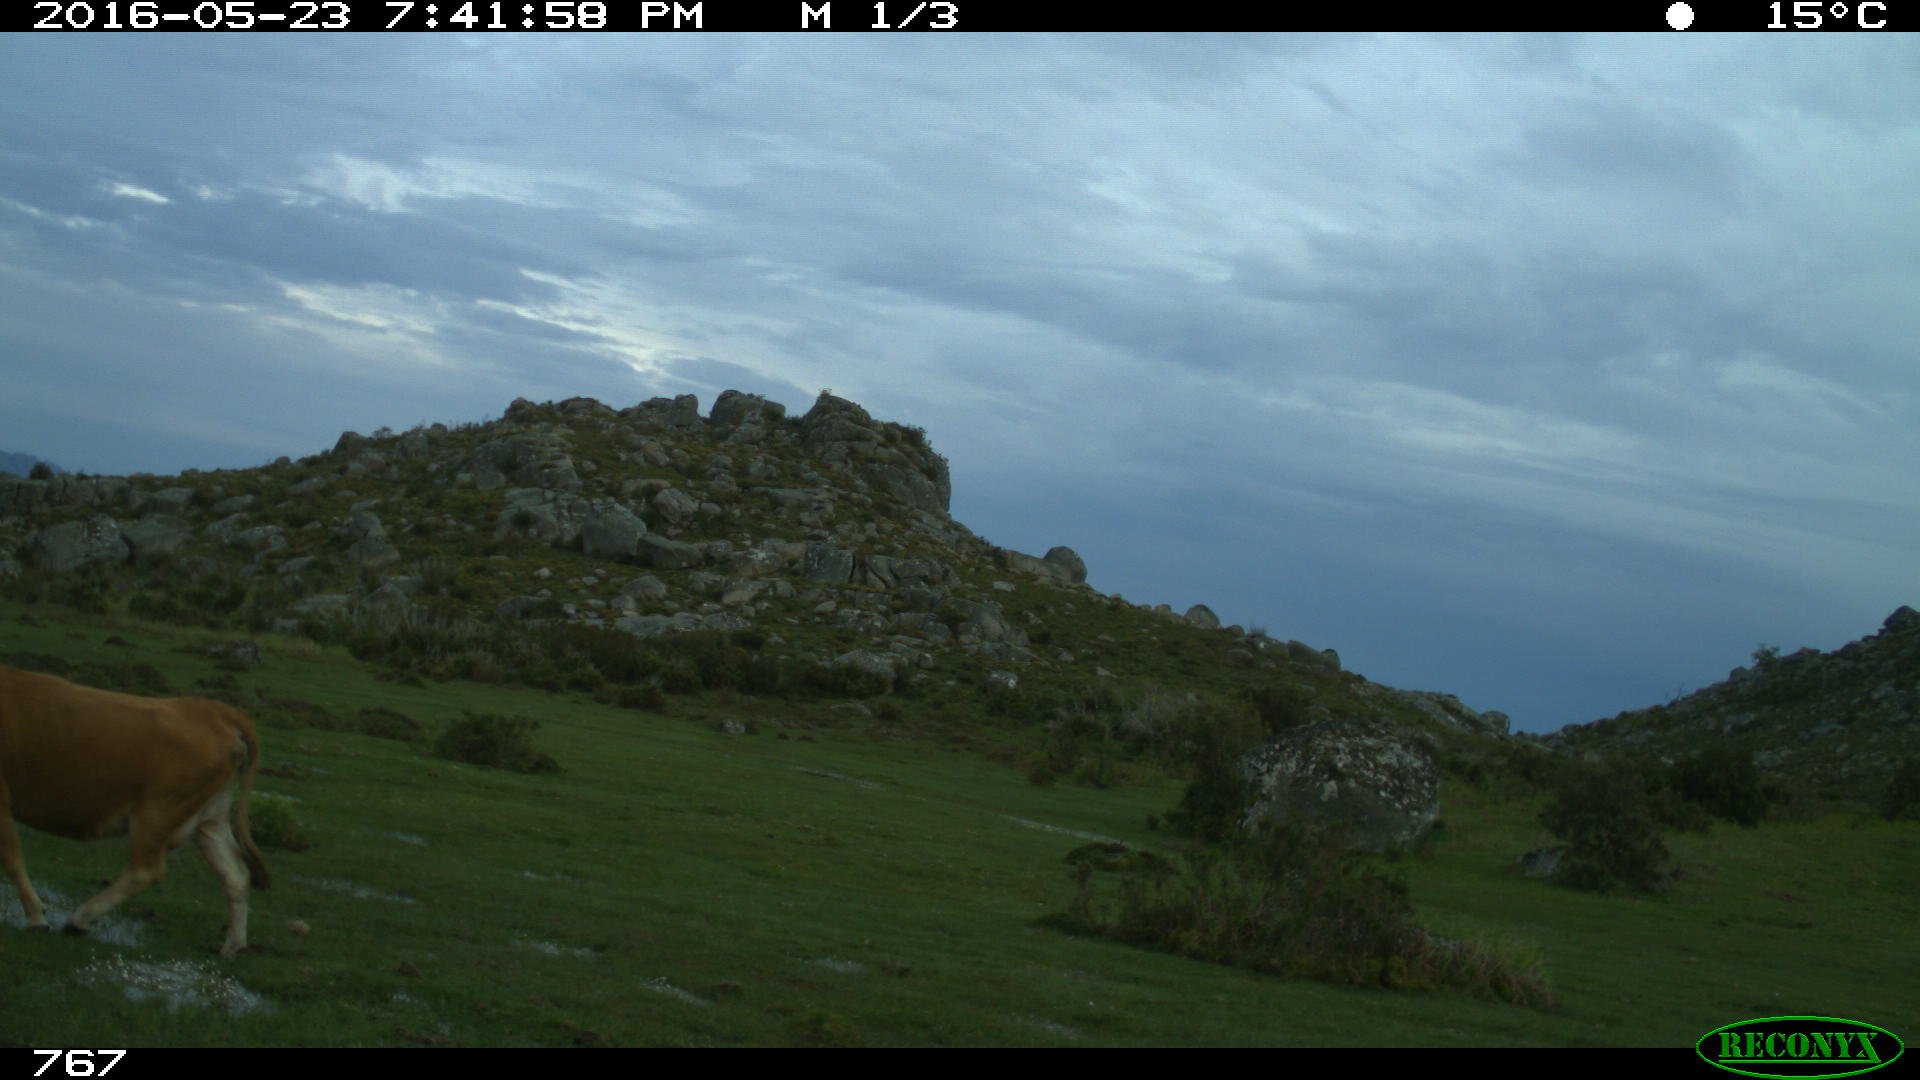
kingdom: Animalia
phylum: Chordata
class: Mammalia
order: Artiodactyla
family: Bovidae
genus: Bos
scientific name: Bos taurus
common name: Domesticated cattle
